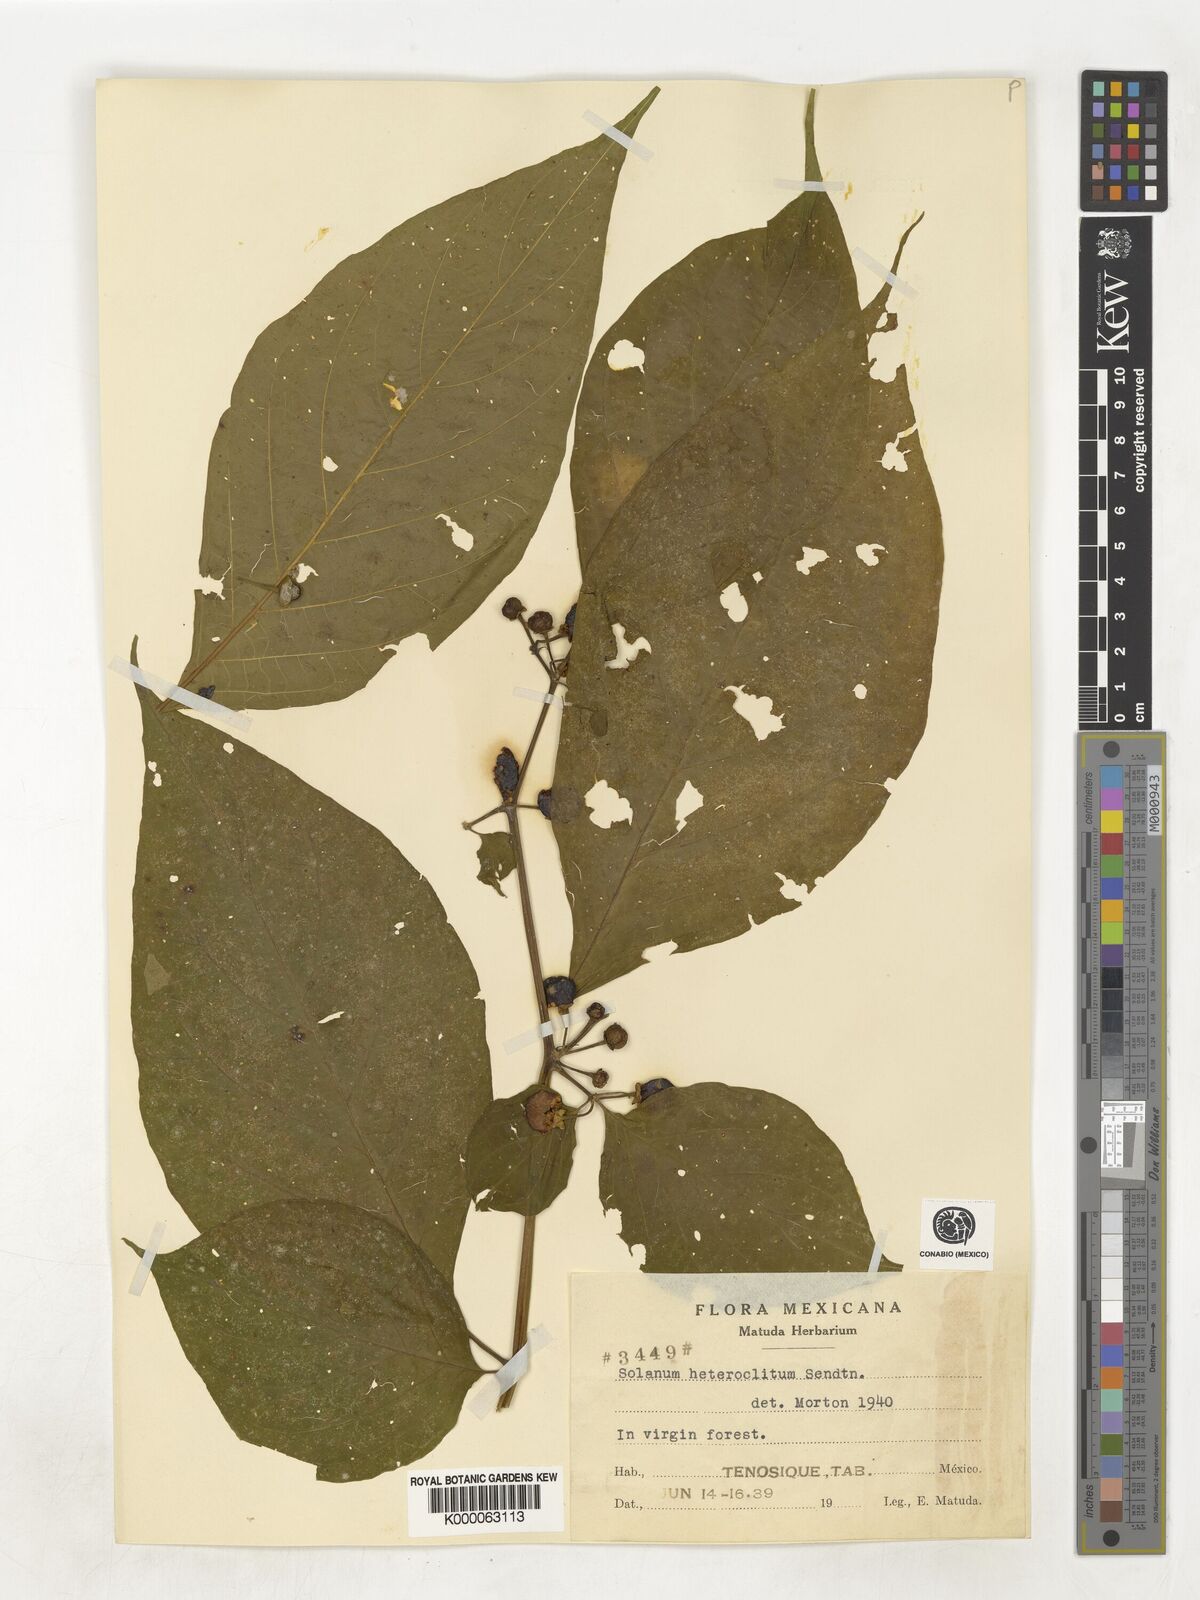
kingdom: Plantae
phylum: Tracheophyta
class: Magnoliopsida
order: Solanales
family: Solanaceae
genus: Lycianthes
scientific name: Lycianthes heteroclita
